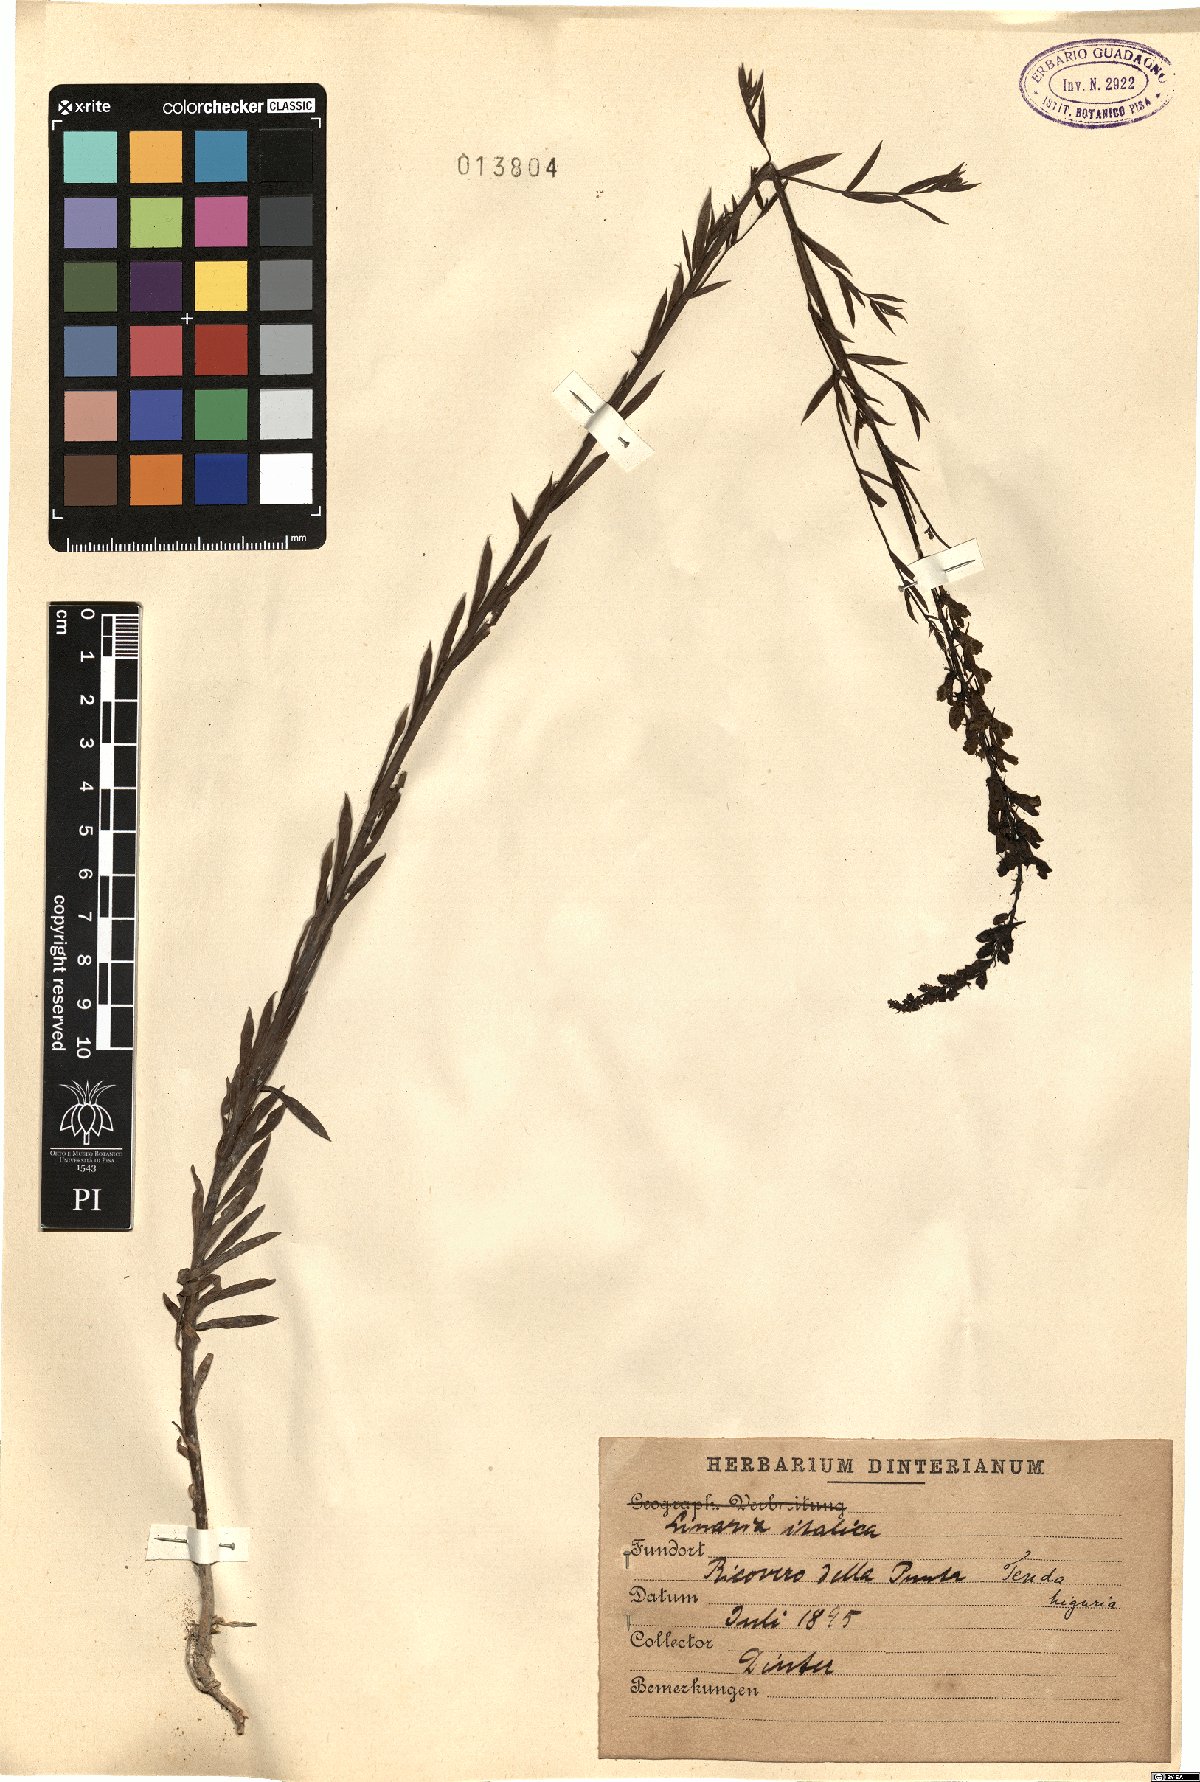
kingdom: Plantae
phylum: Tracheophyta
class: Magnoliopsida
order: Lamiales
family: Plantaginaceae
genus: Linaria
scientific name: Linaria angustissima
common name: Italian toadflax
